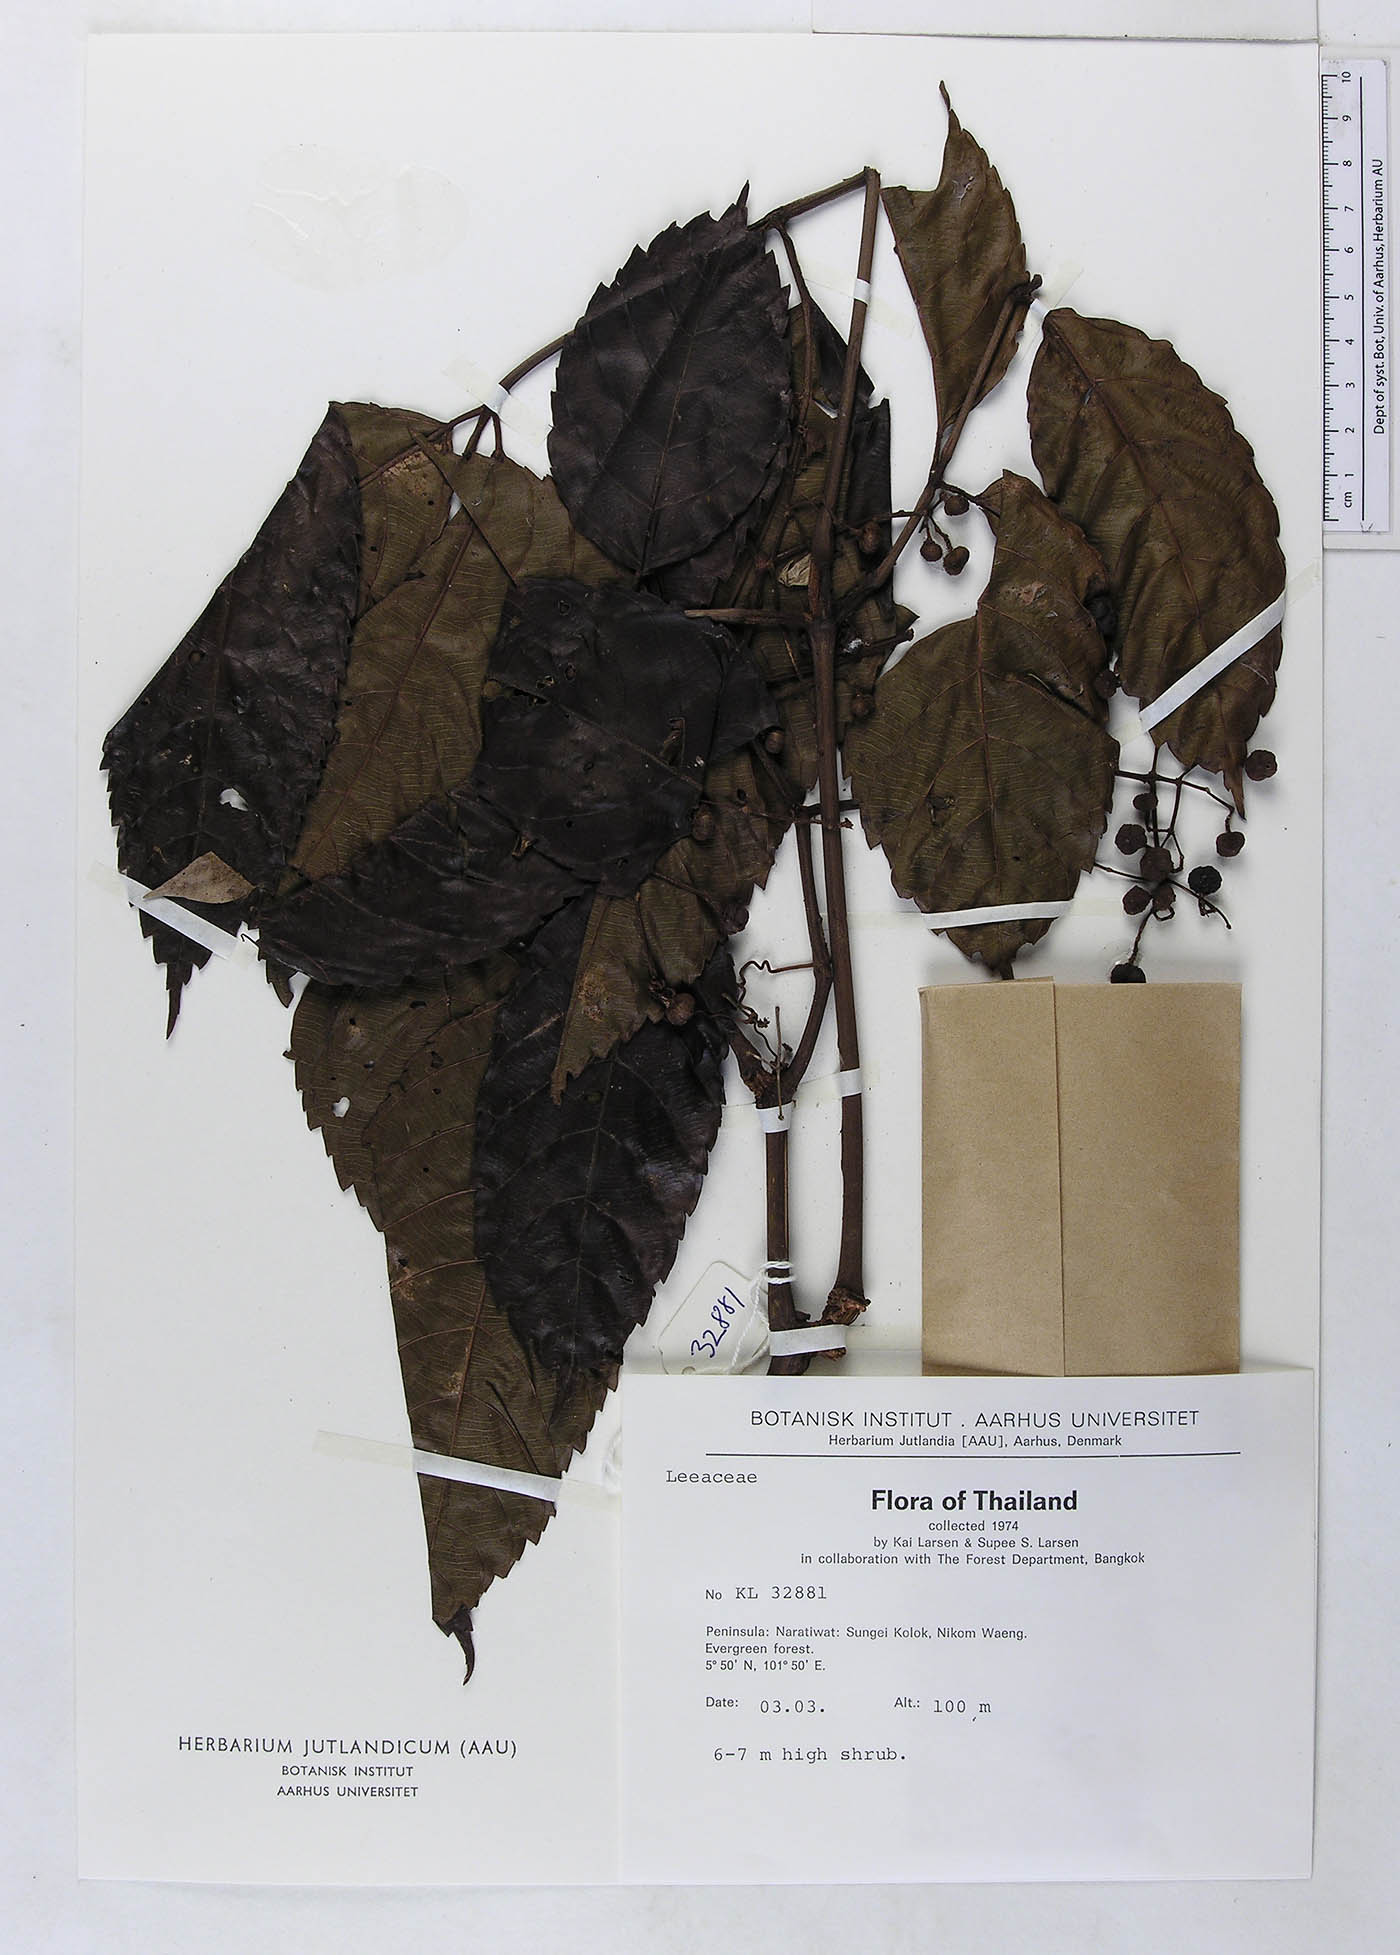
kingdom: Plantae
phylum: Tracheophyta
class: Magnoliopsida
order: Vitales
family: Vitaceae
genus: Leea
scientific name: Leea indica
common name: Bandicoot-berry
